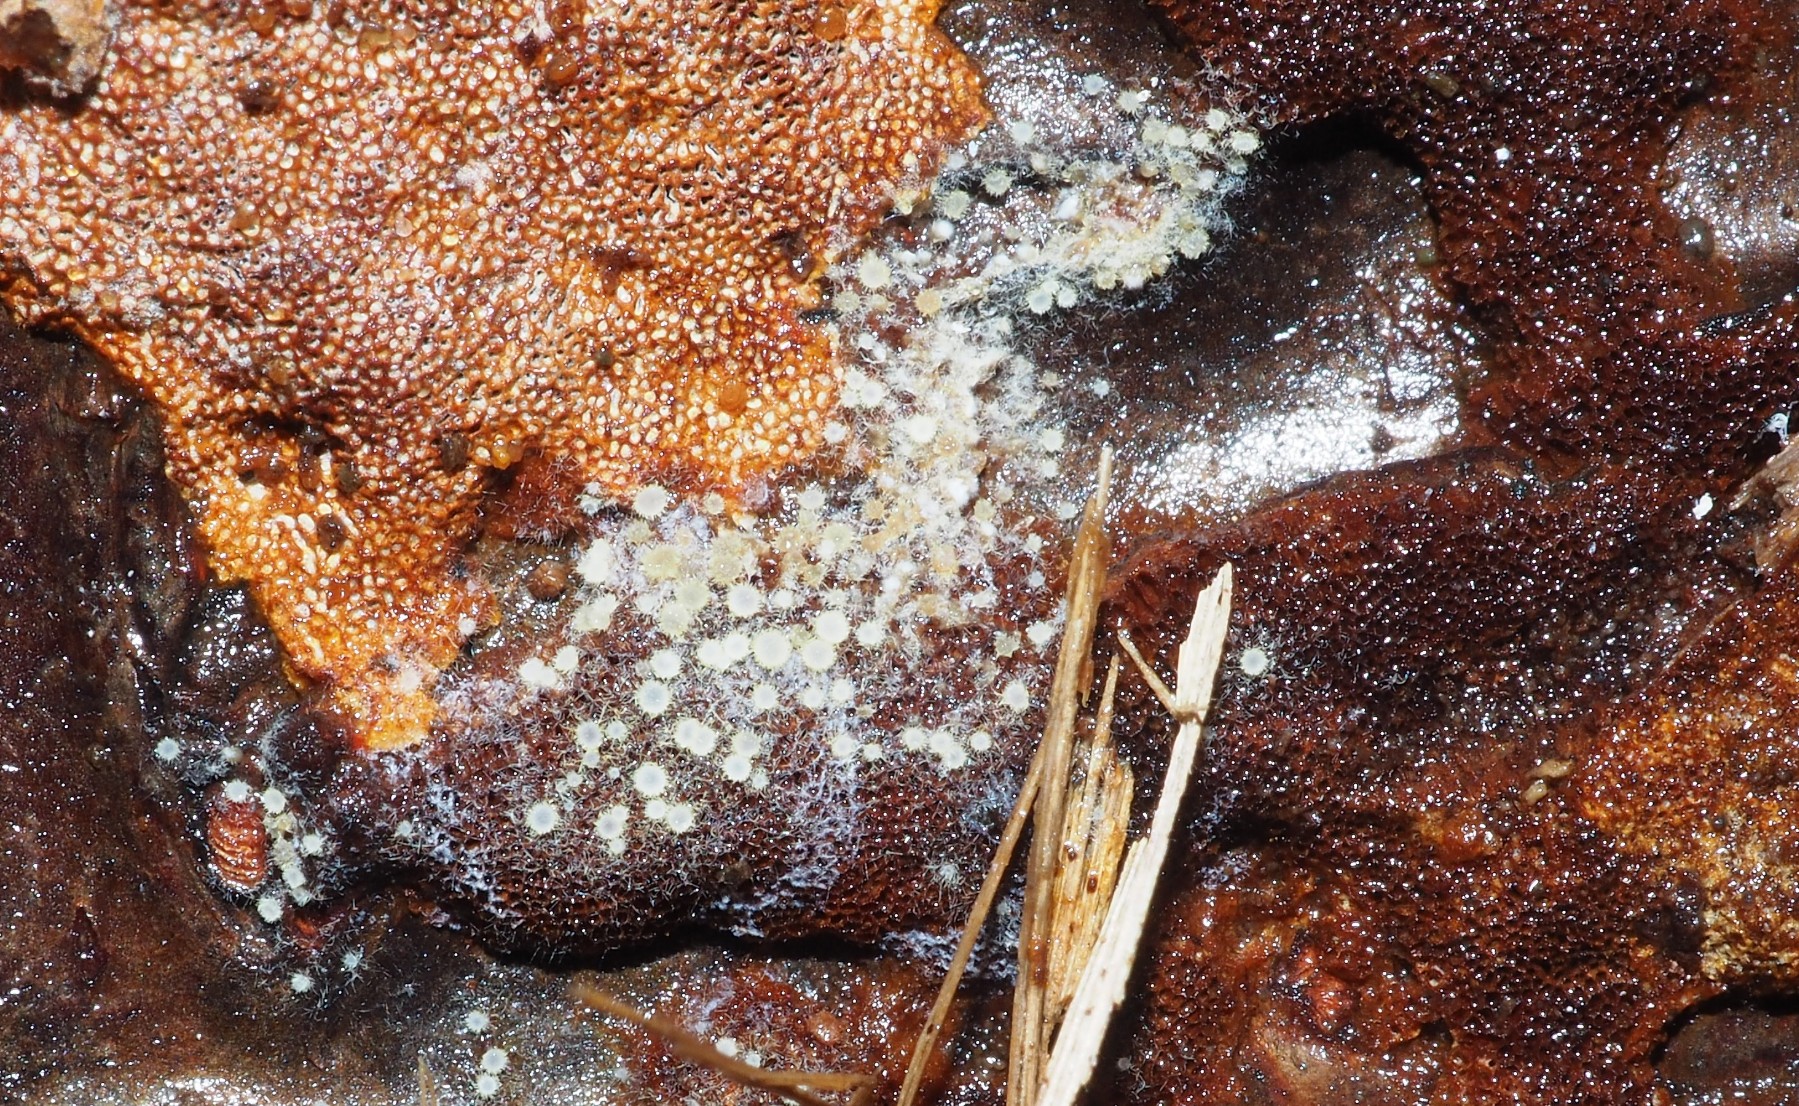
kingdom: Fungi
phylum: Ascomycota
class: Leotiomycetes
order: Helotiales
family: Arachnopezizaceae
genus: Arachnopeziza
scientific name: Arachnopeziza aurata
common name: bleggul spindskive
